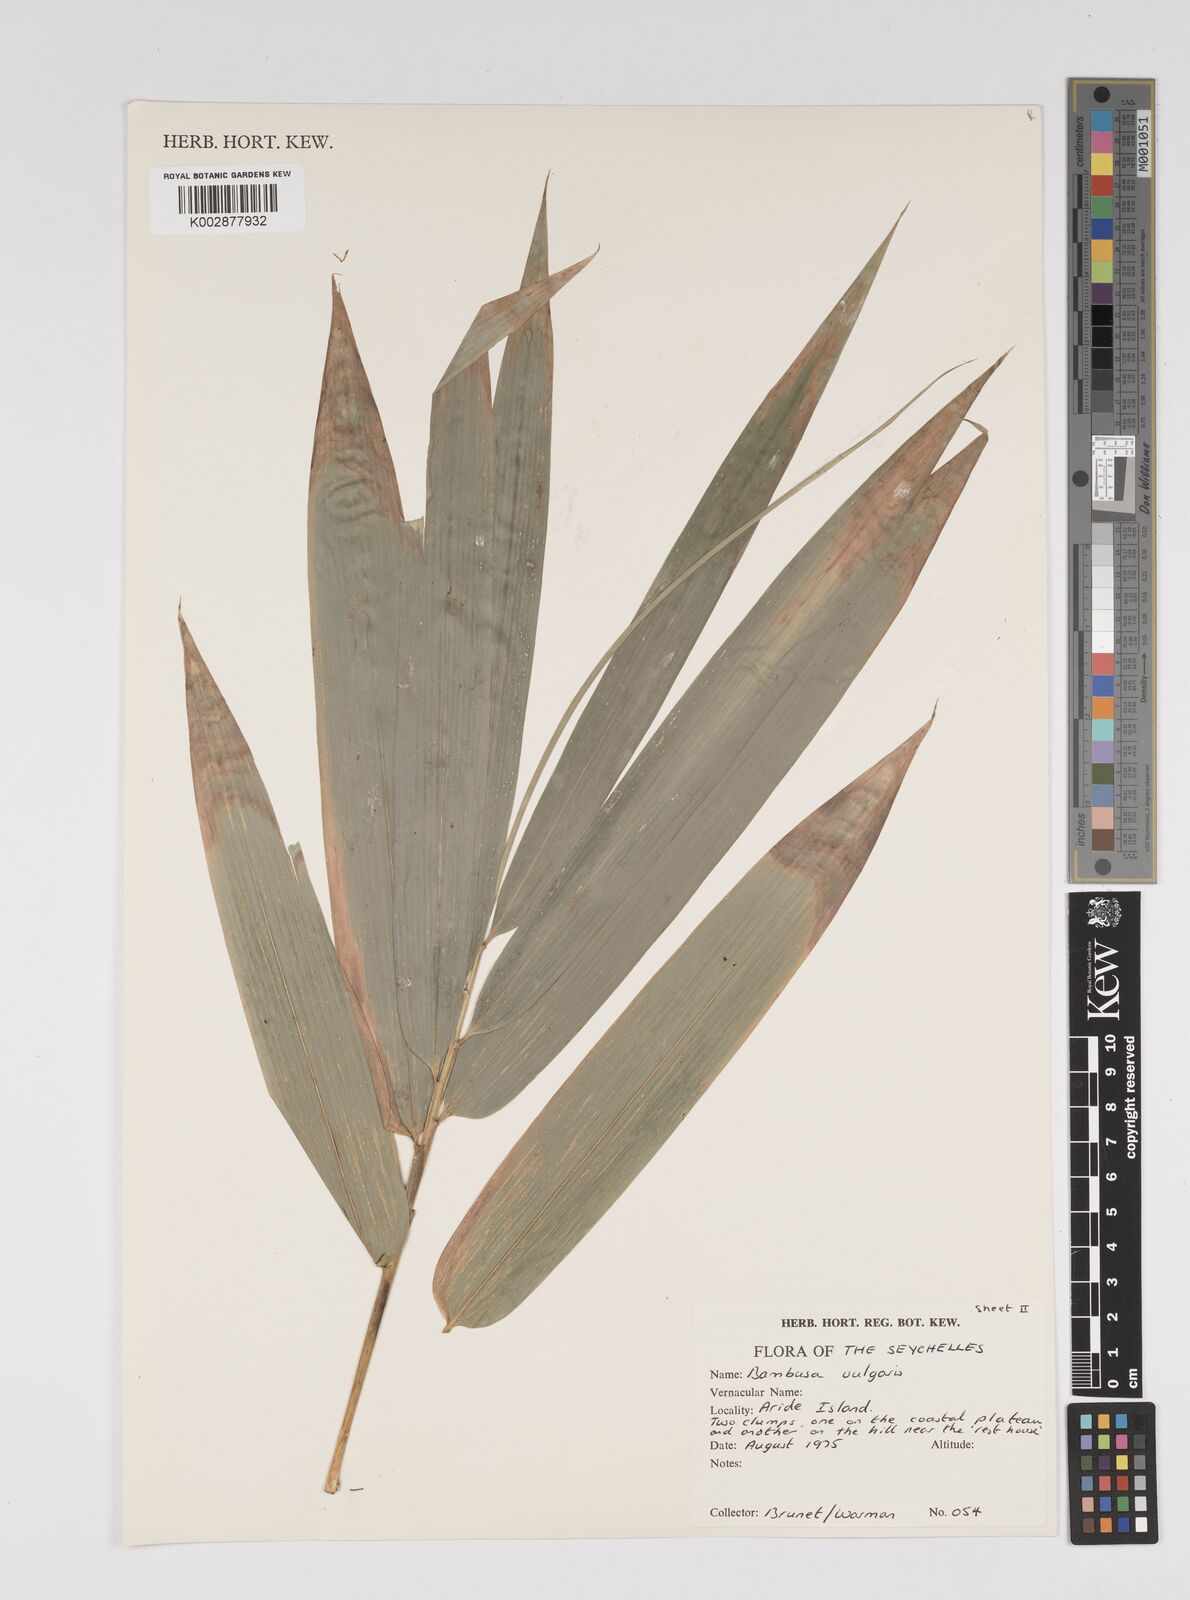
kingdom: Plantae
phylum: Tracheophyta
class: Liliopsida
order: Poales
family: Poaceae
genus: Bambusa
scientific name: Bambusa
